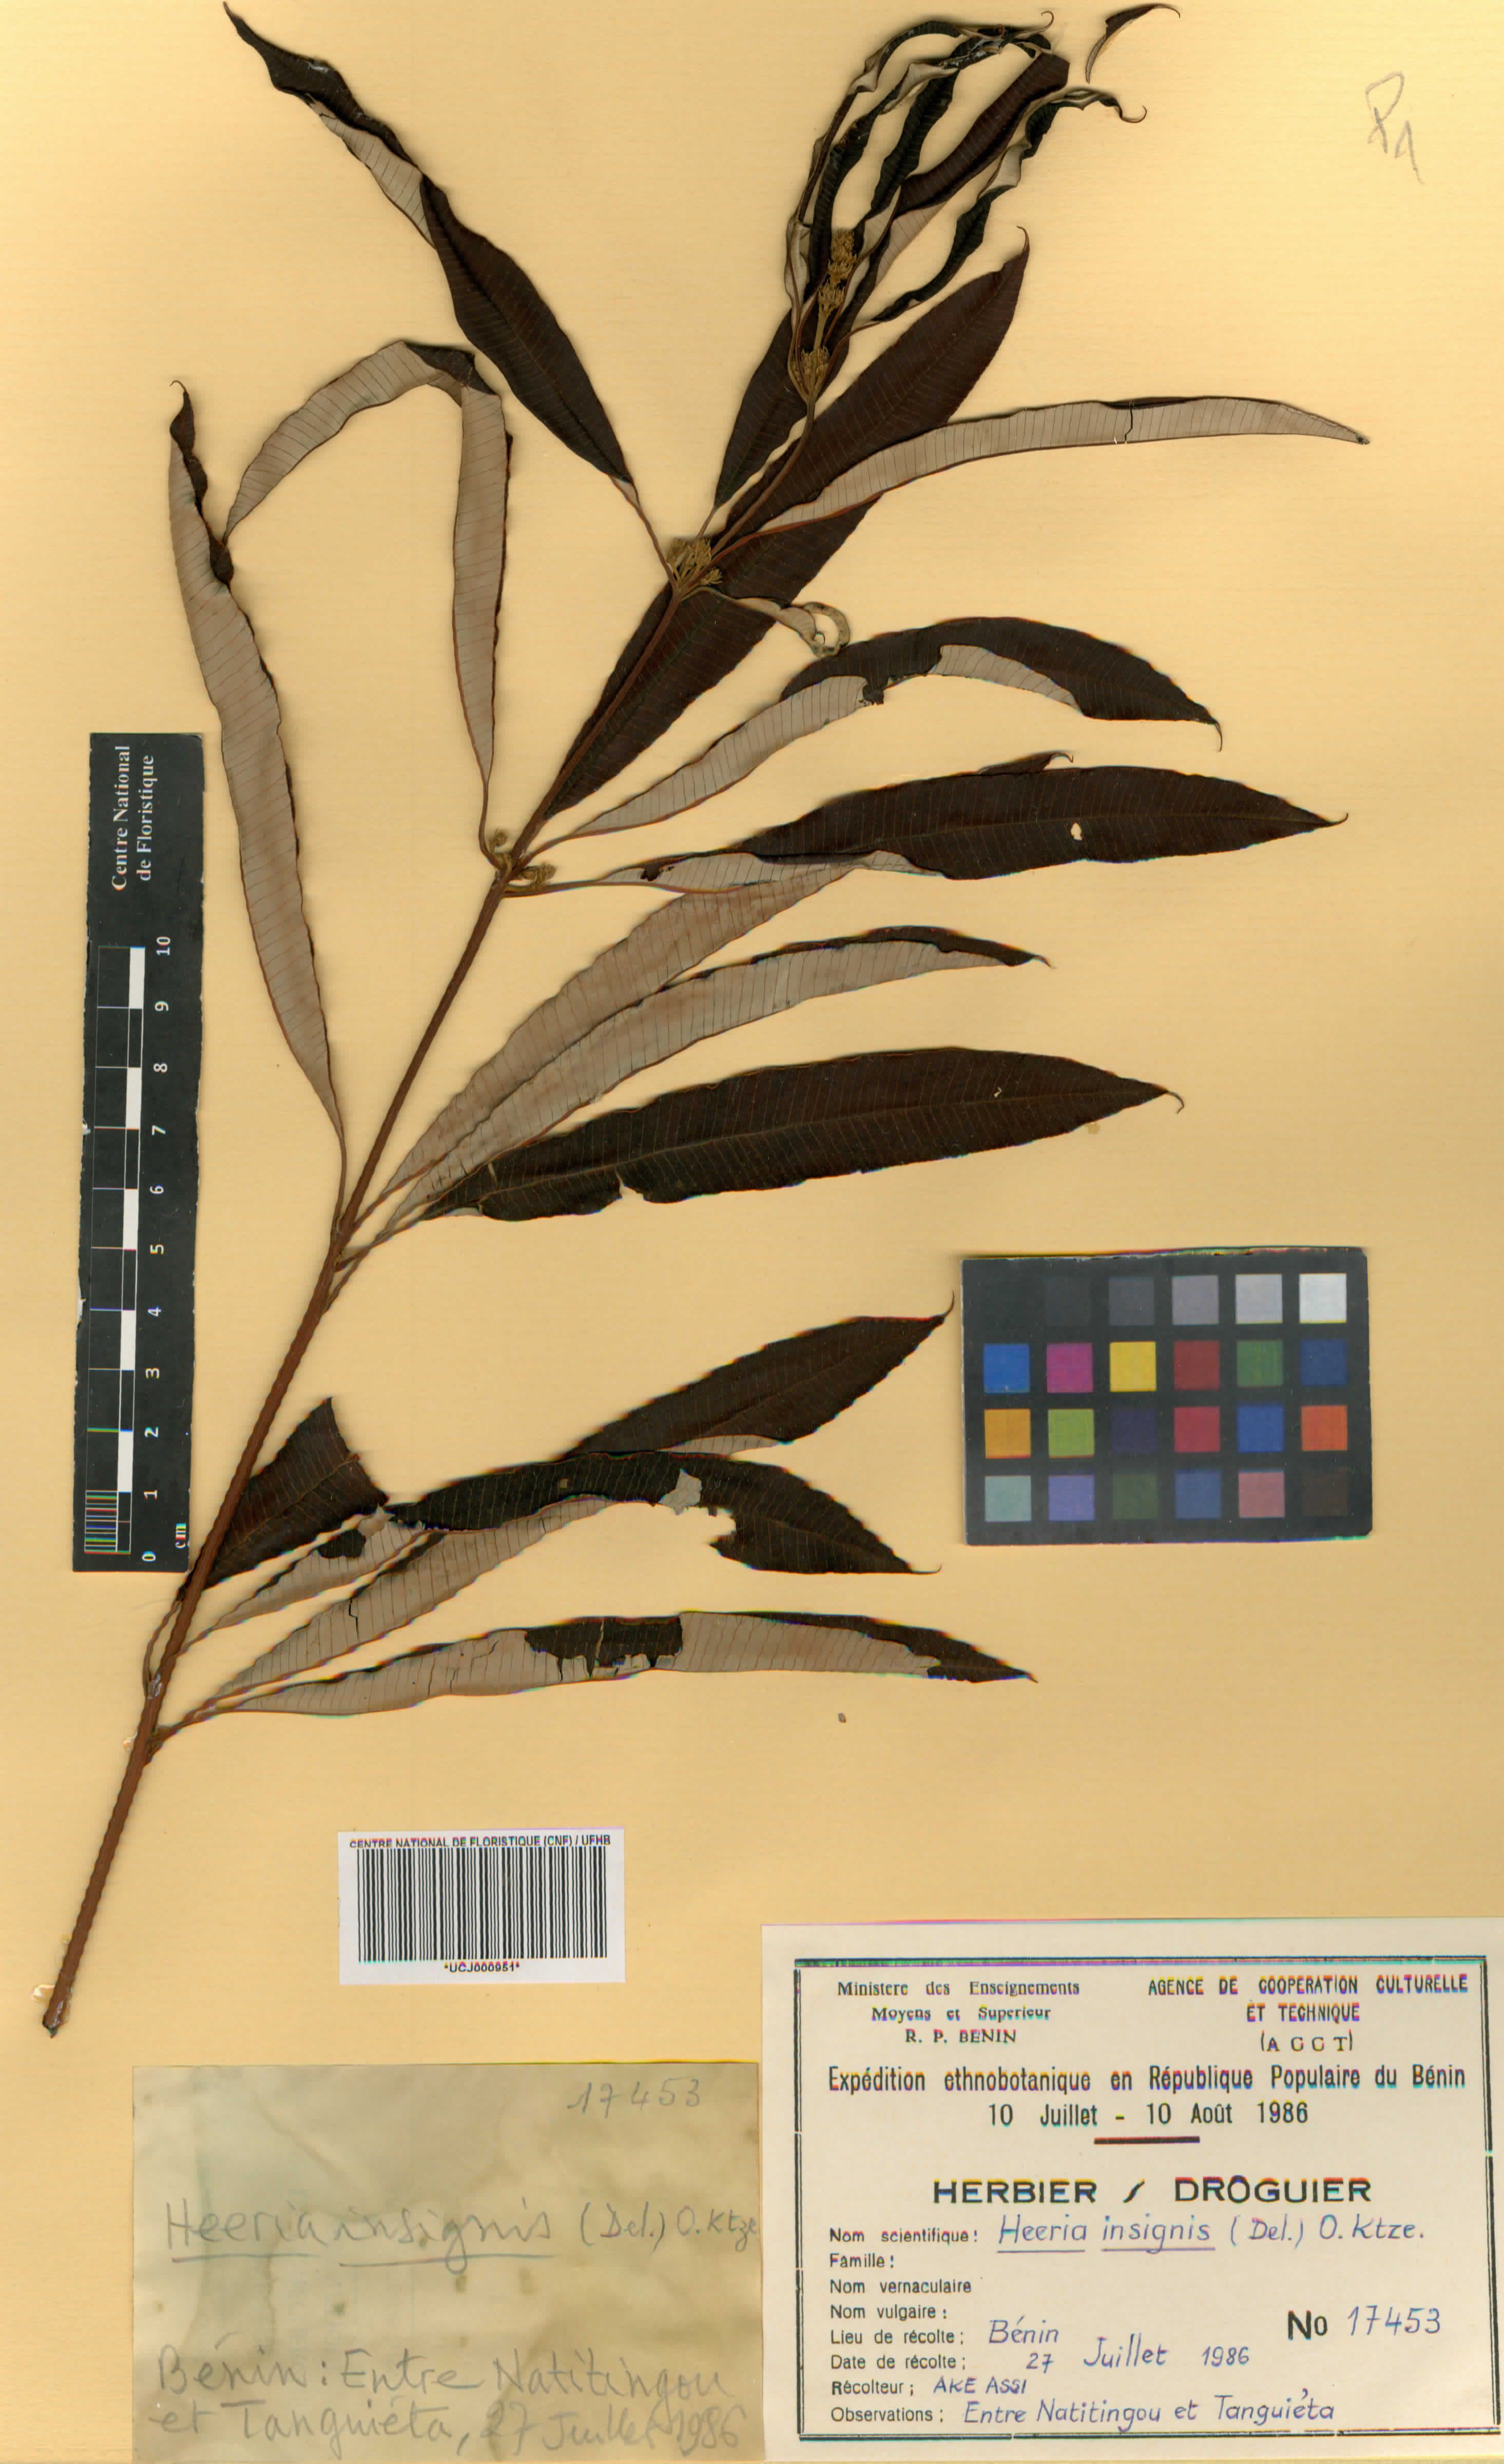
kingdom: Plantae
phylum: Tracheophyta
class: Magnoliopsida
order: Sapindales
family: Anacardiaceae
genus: Ozoroa
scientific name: Ozoroa
